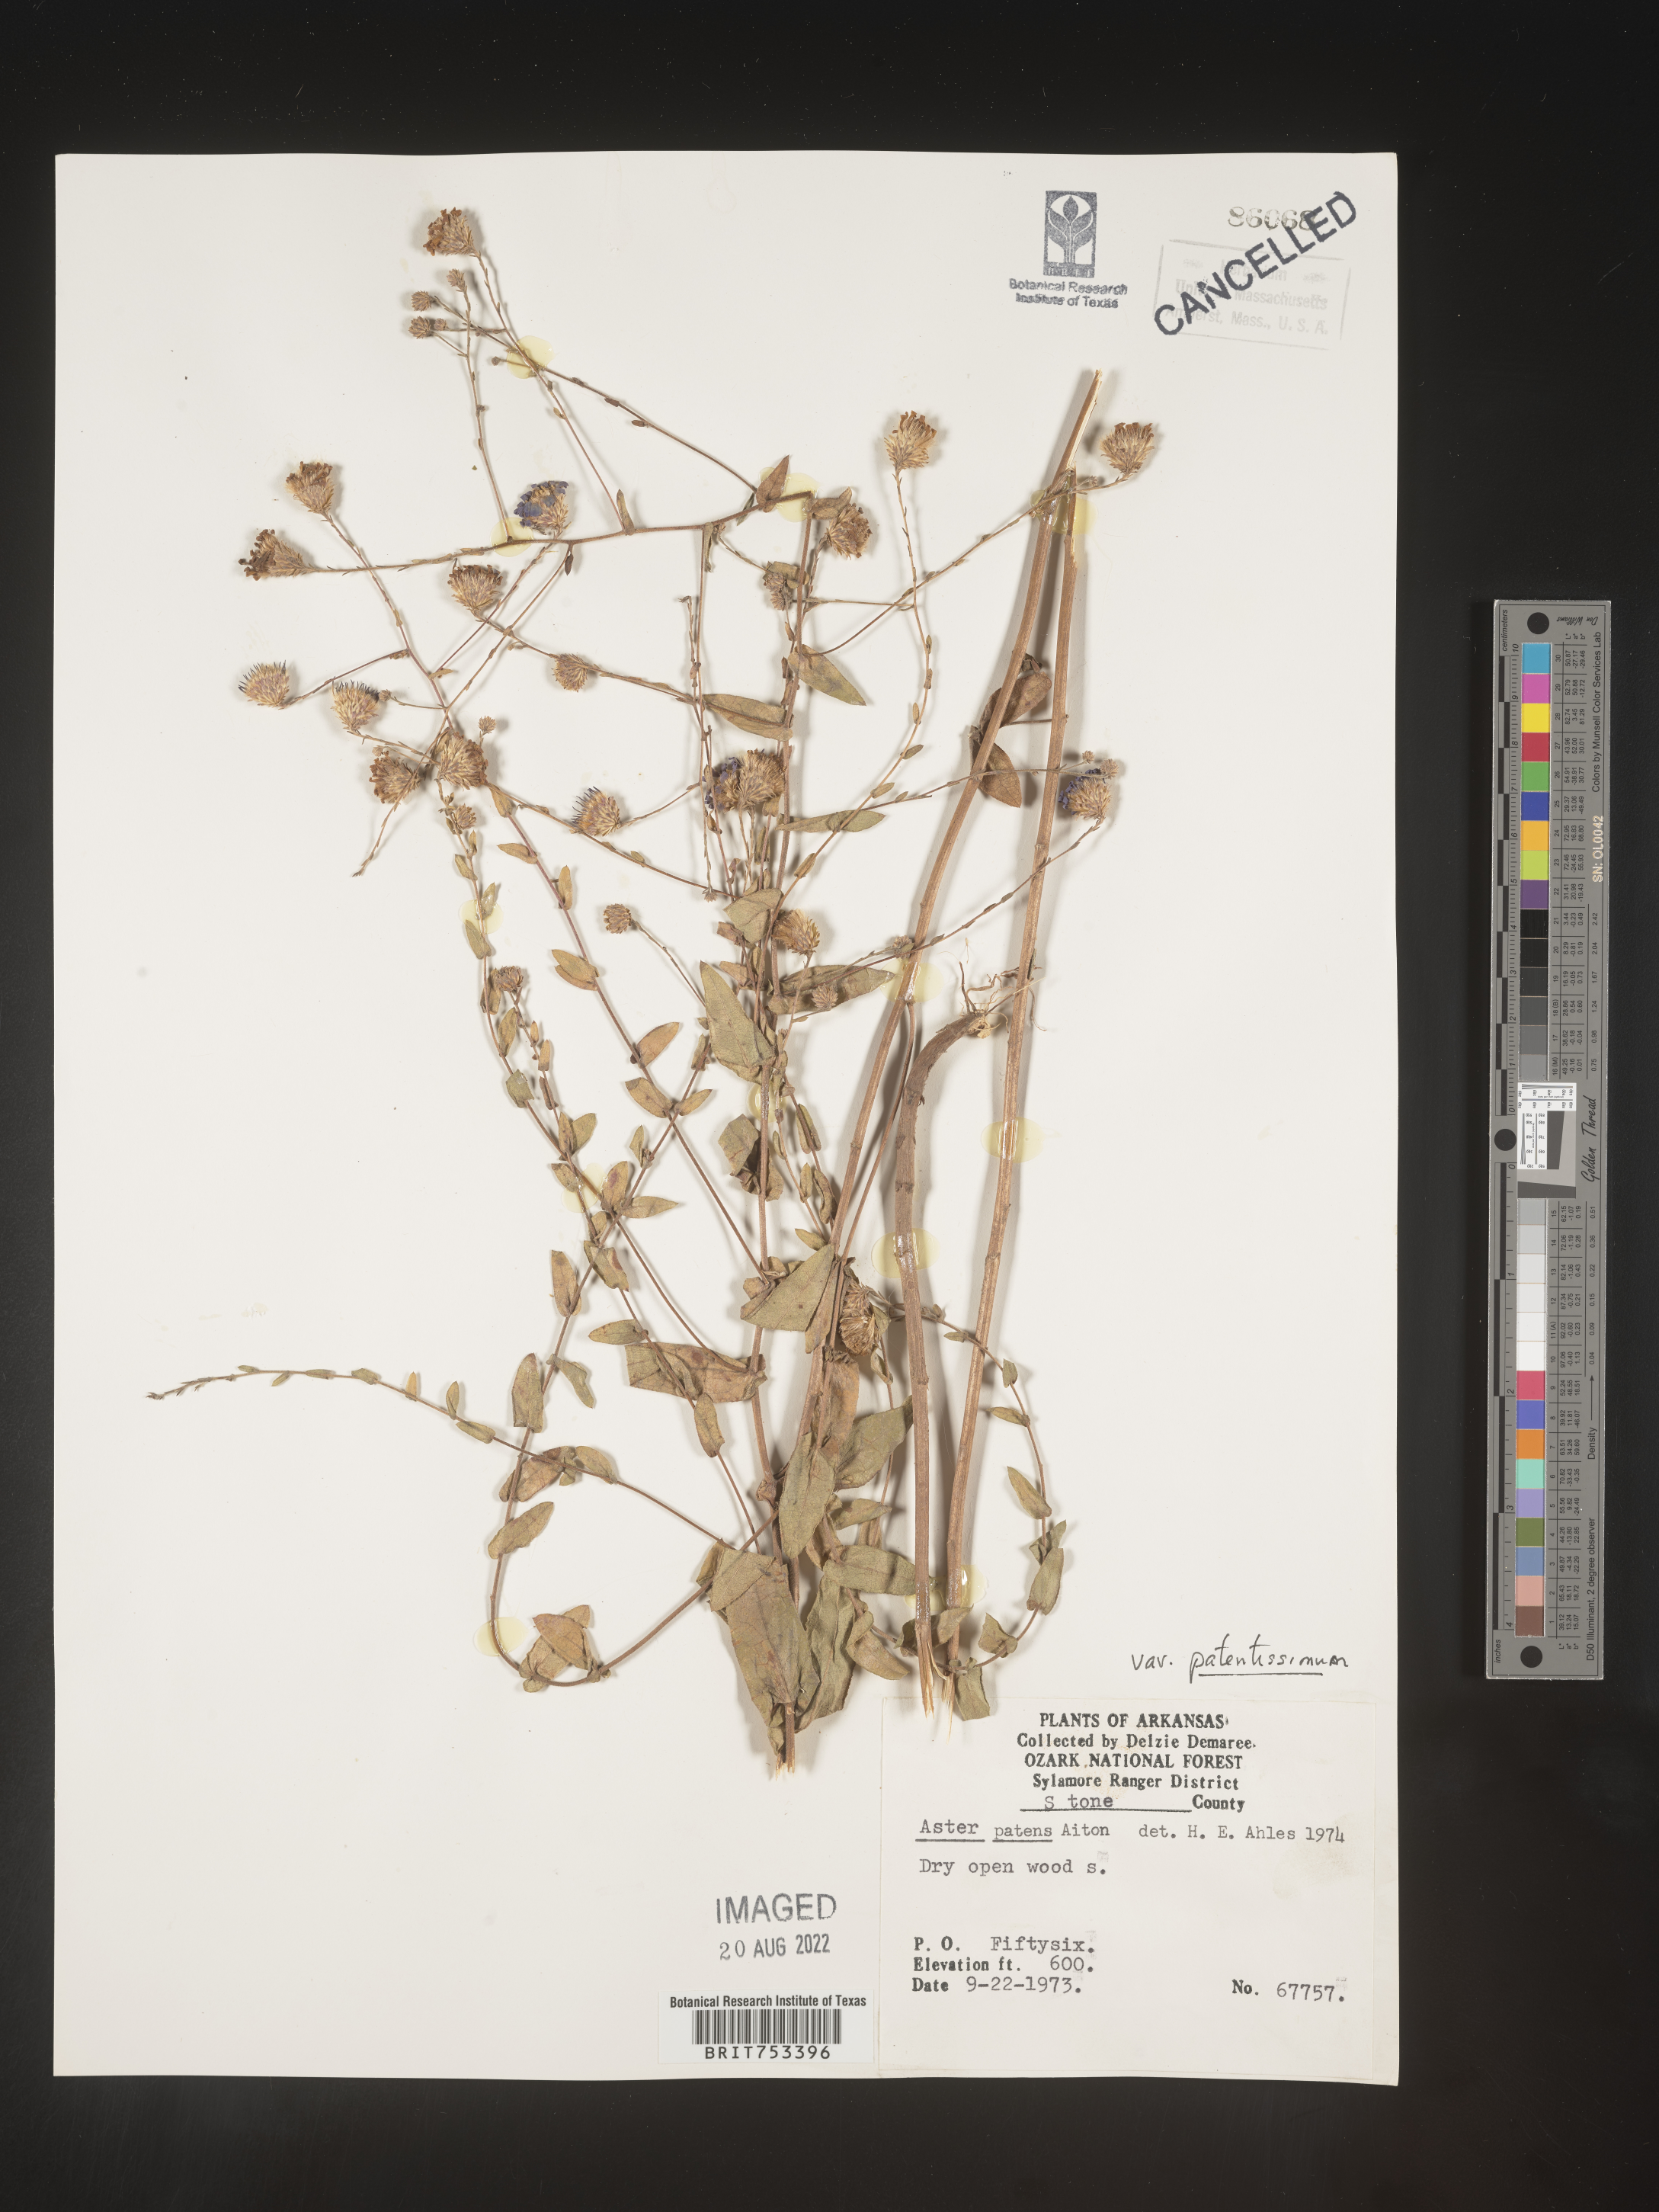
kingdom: Plantae
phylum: Tracheophyta
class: Magnoliopsida
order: Asterales
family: Asteraceae
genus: Symphyotrichum
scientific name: Symphyotrichum patens
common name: Late purple aster
